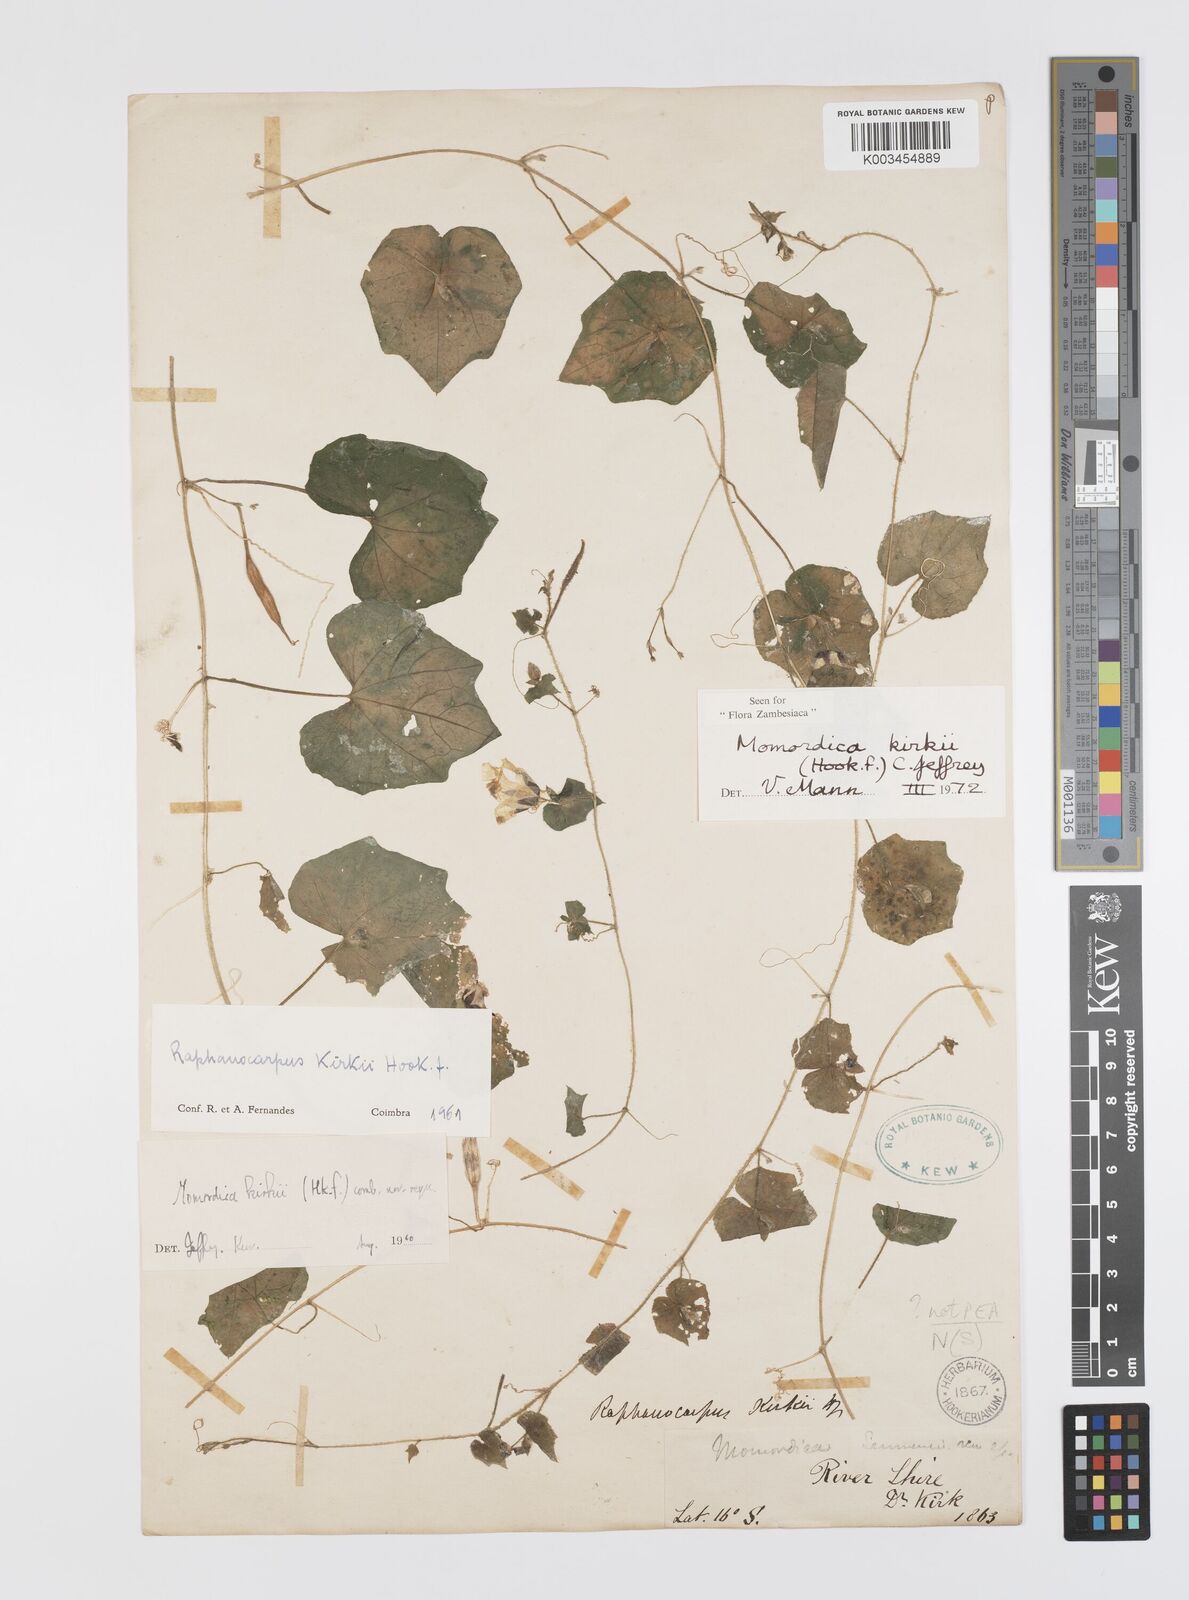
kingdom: Plantae
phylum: Tracheophyta
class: Magnoliopsida
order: Cucurbitales
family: Cucurbitaceae
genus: Momordica
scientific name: Momordica kirkii
